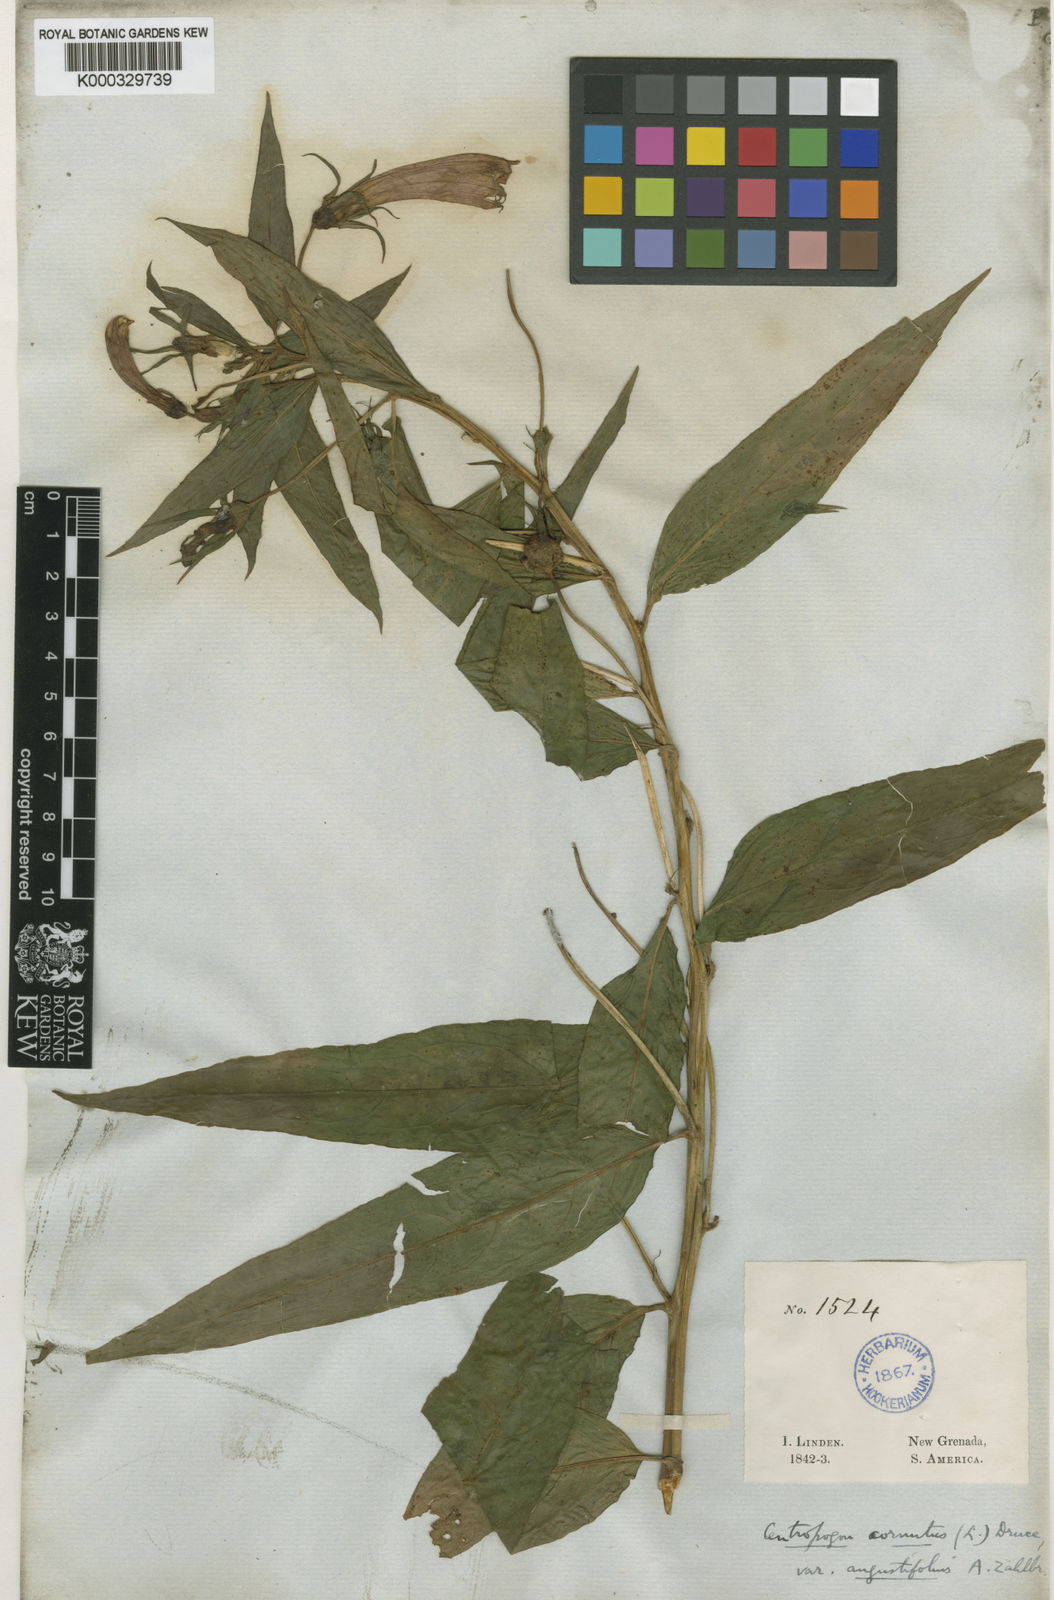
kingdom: Plantae
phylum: Tracheophyta
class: Magnoliopsida
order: Asterales
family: Campanulaceae
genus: Centropogon
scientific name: Centropogon cornutus
